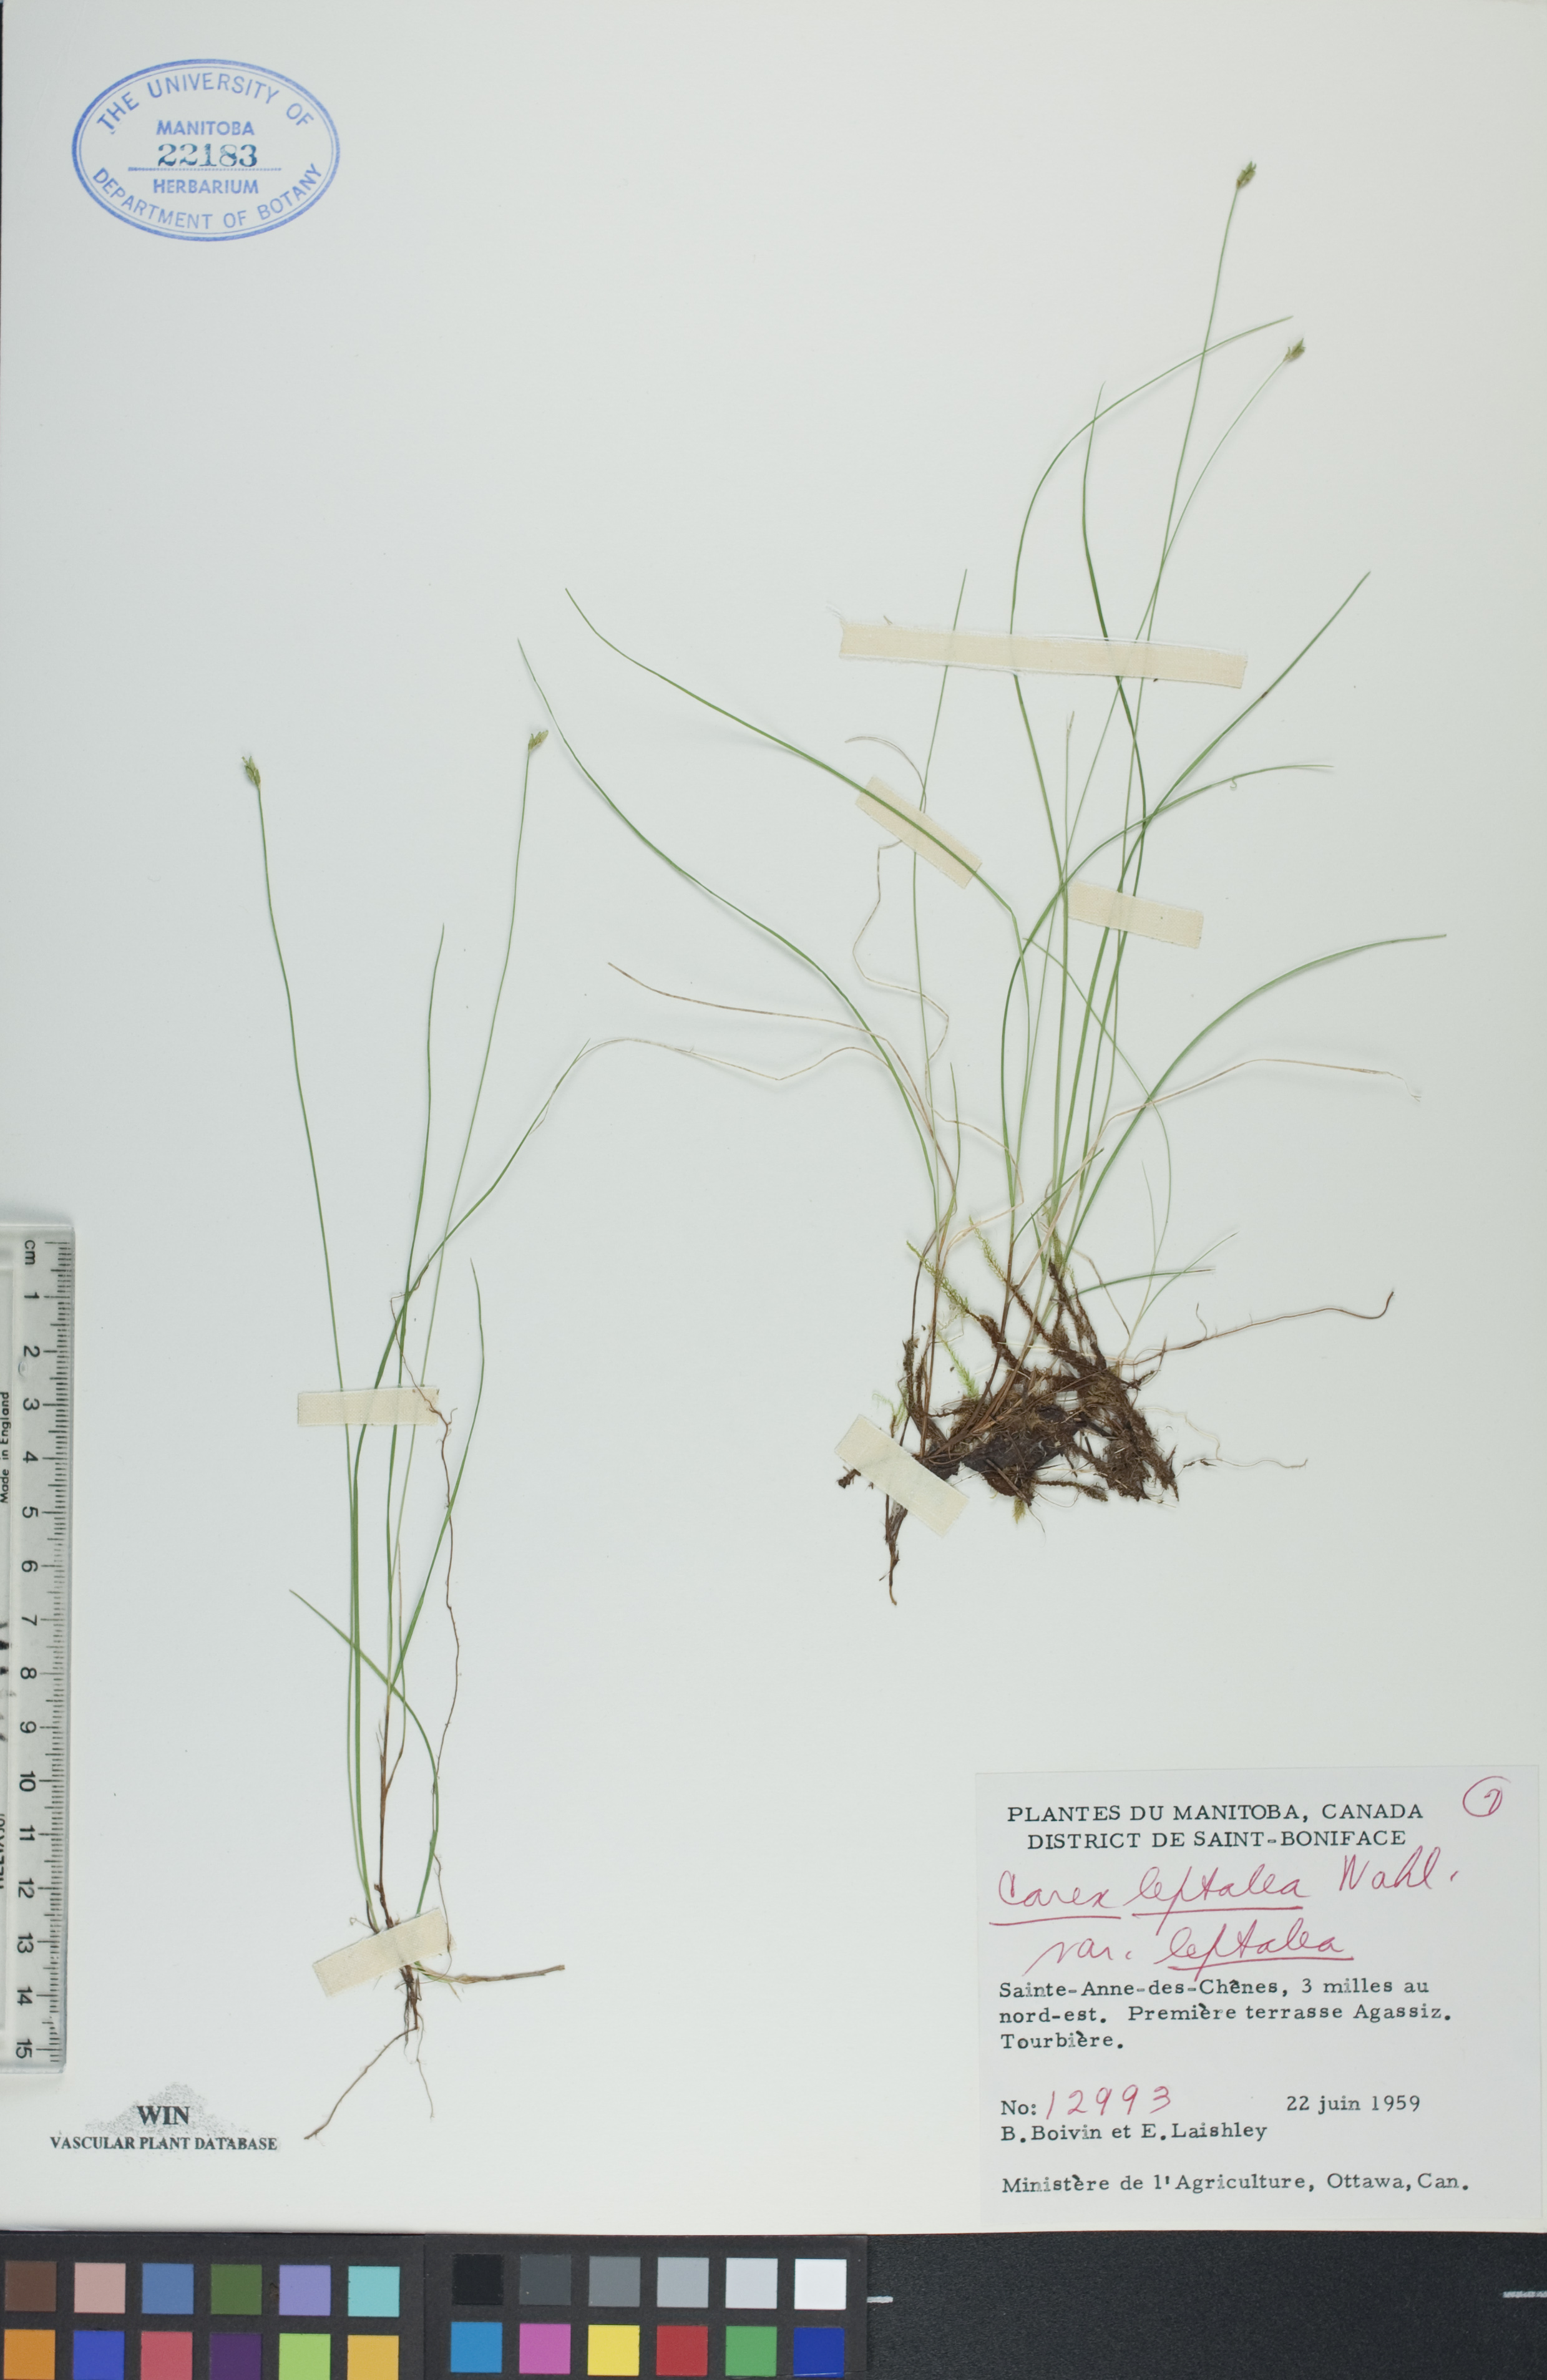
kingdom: Plantae
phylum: Tracheophyta
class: Liliopsida
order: Poales
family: Cyperaceae
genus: Carex
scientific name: Carex leptalea
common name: Bristly-stalked sedge
